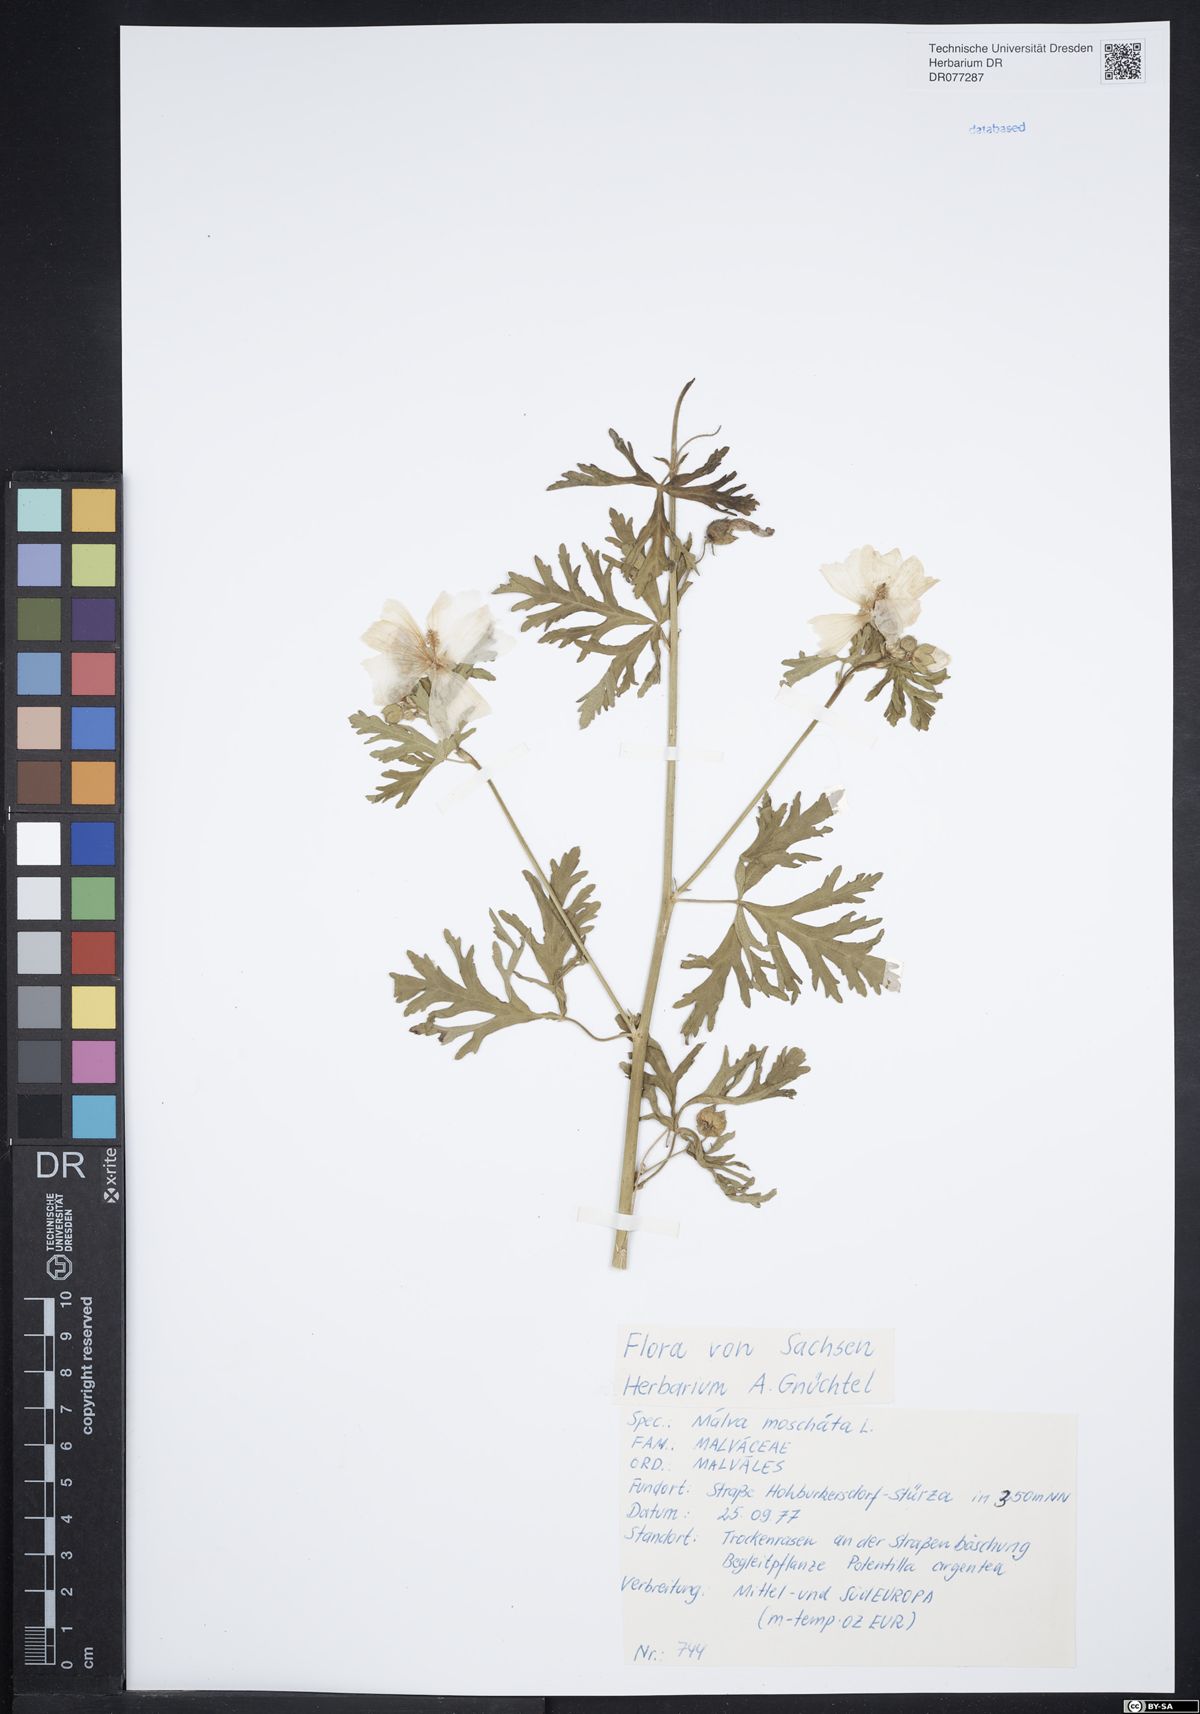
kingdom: Plantae
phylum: Tracheophyta
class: Magnoliopsida
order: Malvales
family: Malvaceae
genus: Malva
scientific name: Malva moschata
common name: Musk mallow
